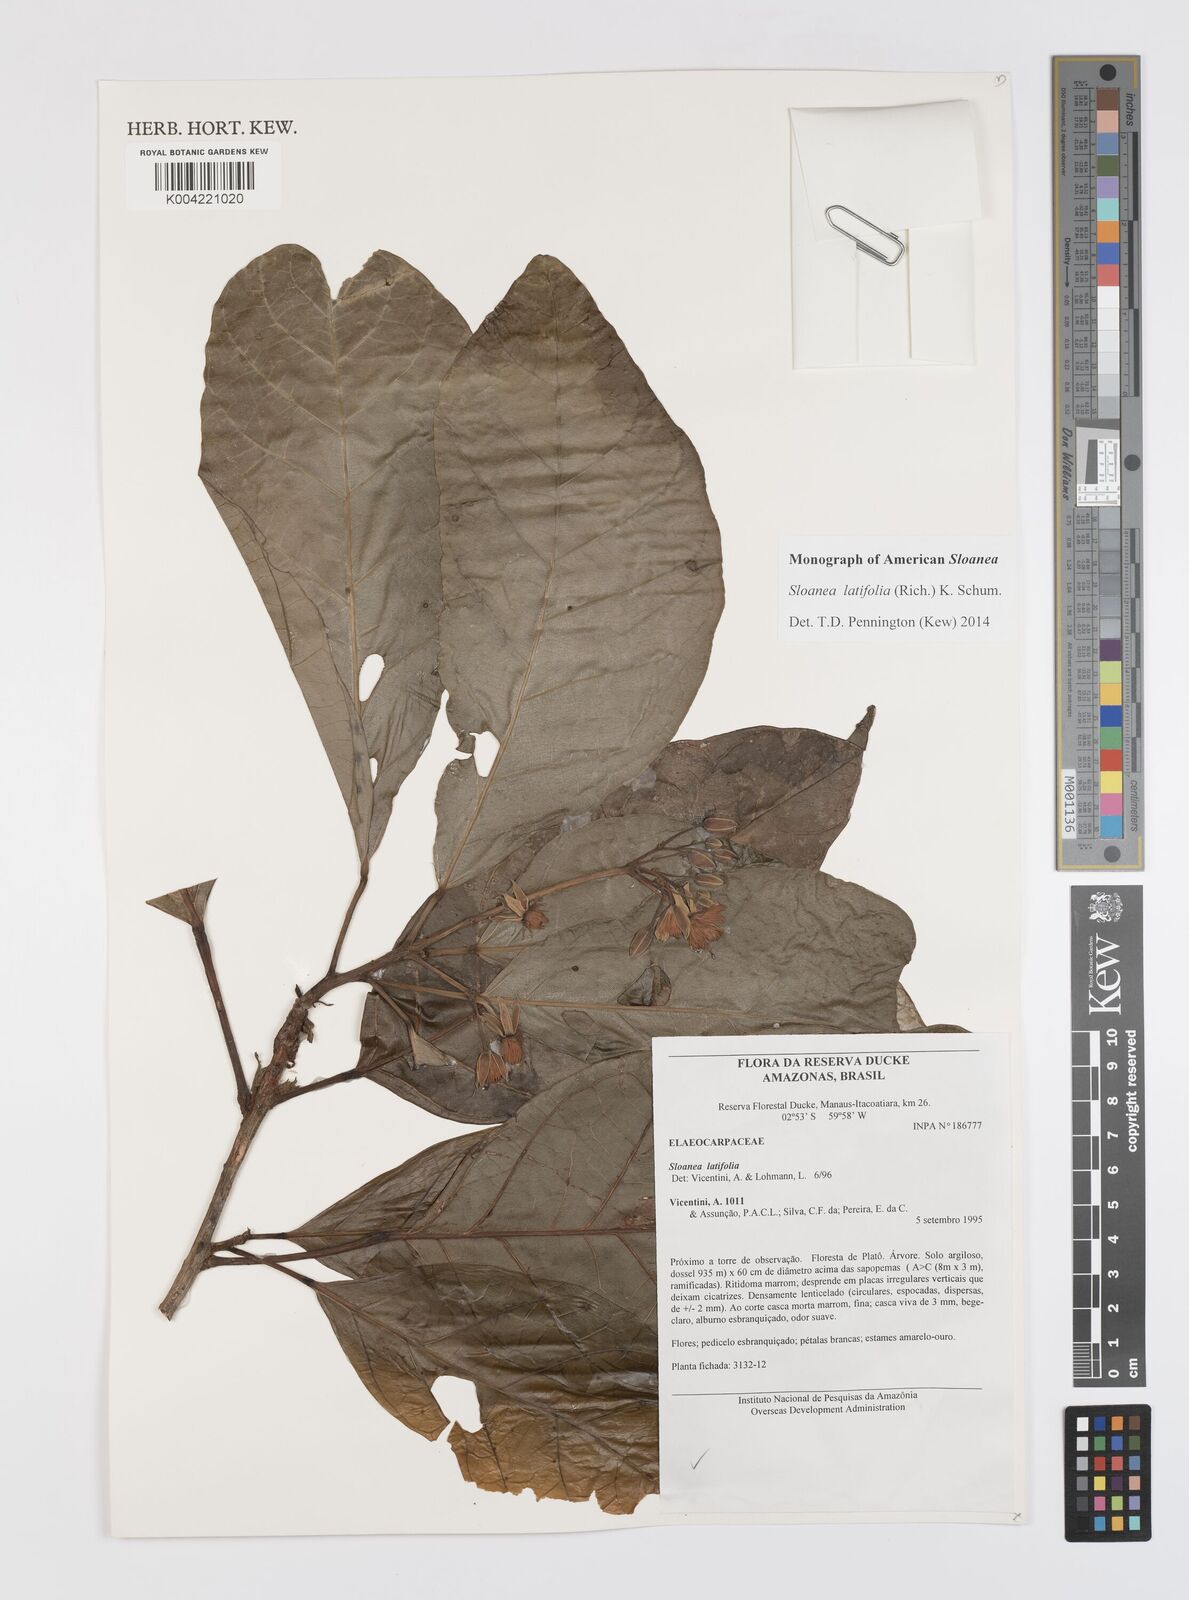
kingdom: Plantae
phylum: Tracheophyta
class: Magnoliopsida
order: Oxalidales
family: Elaeocarpaceae
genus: Sloanea
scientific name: Sloanea latifolia
